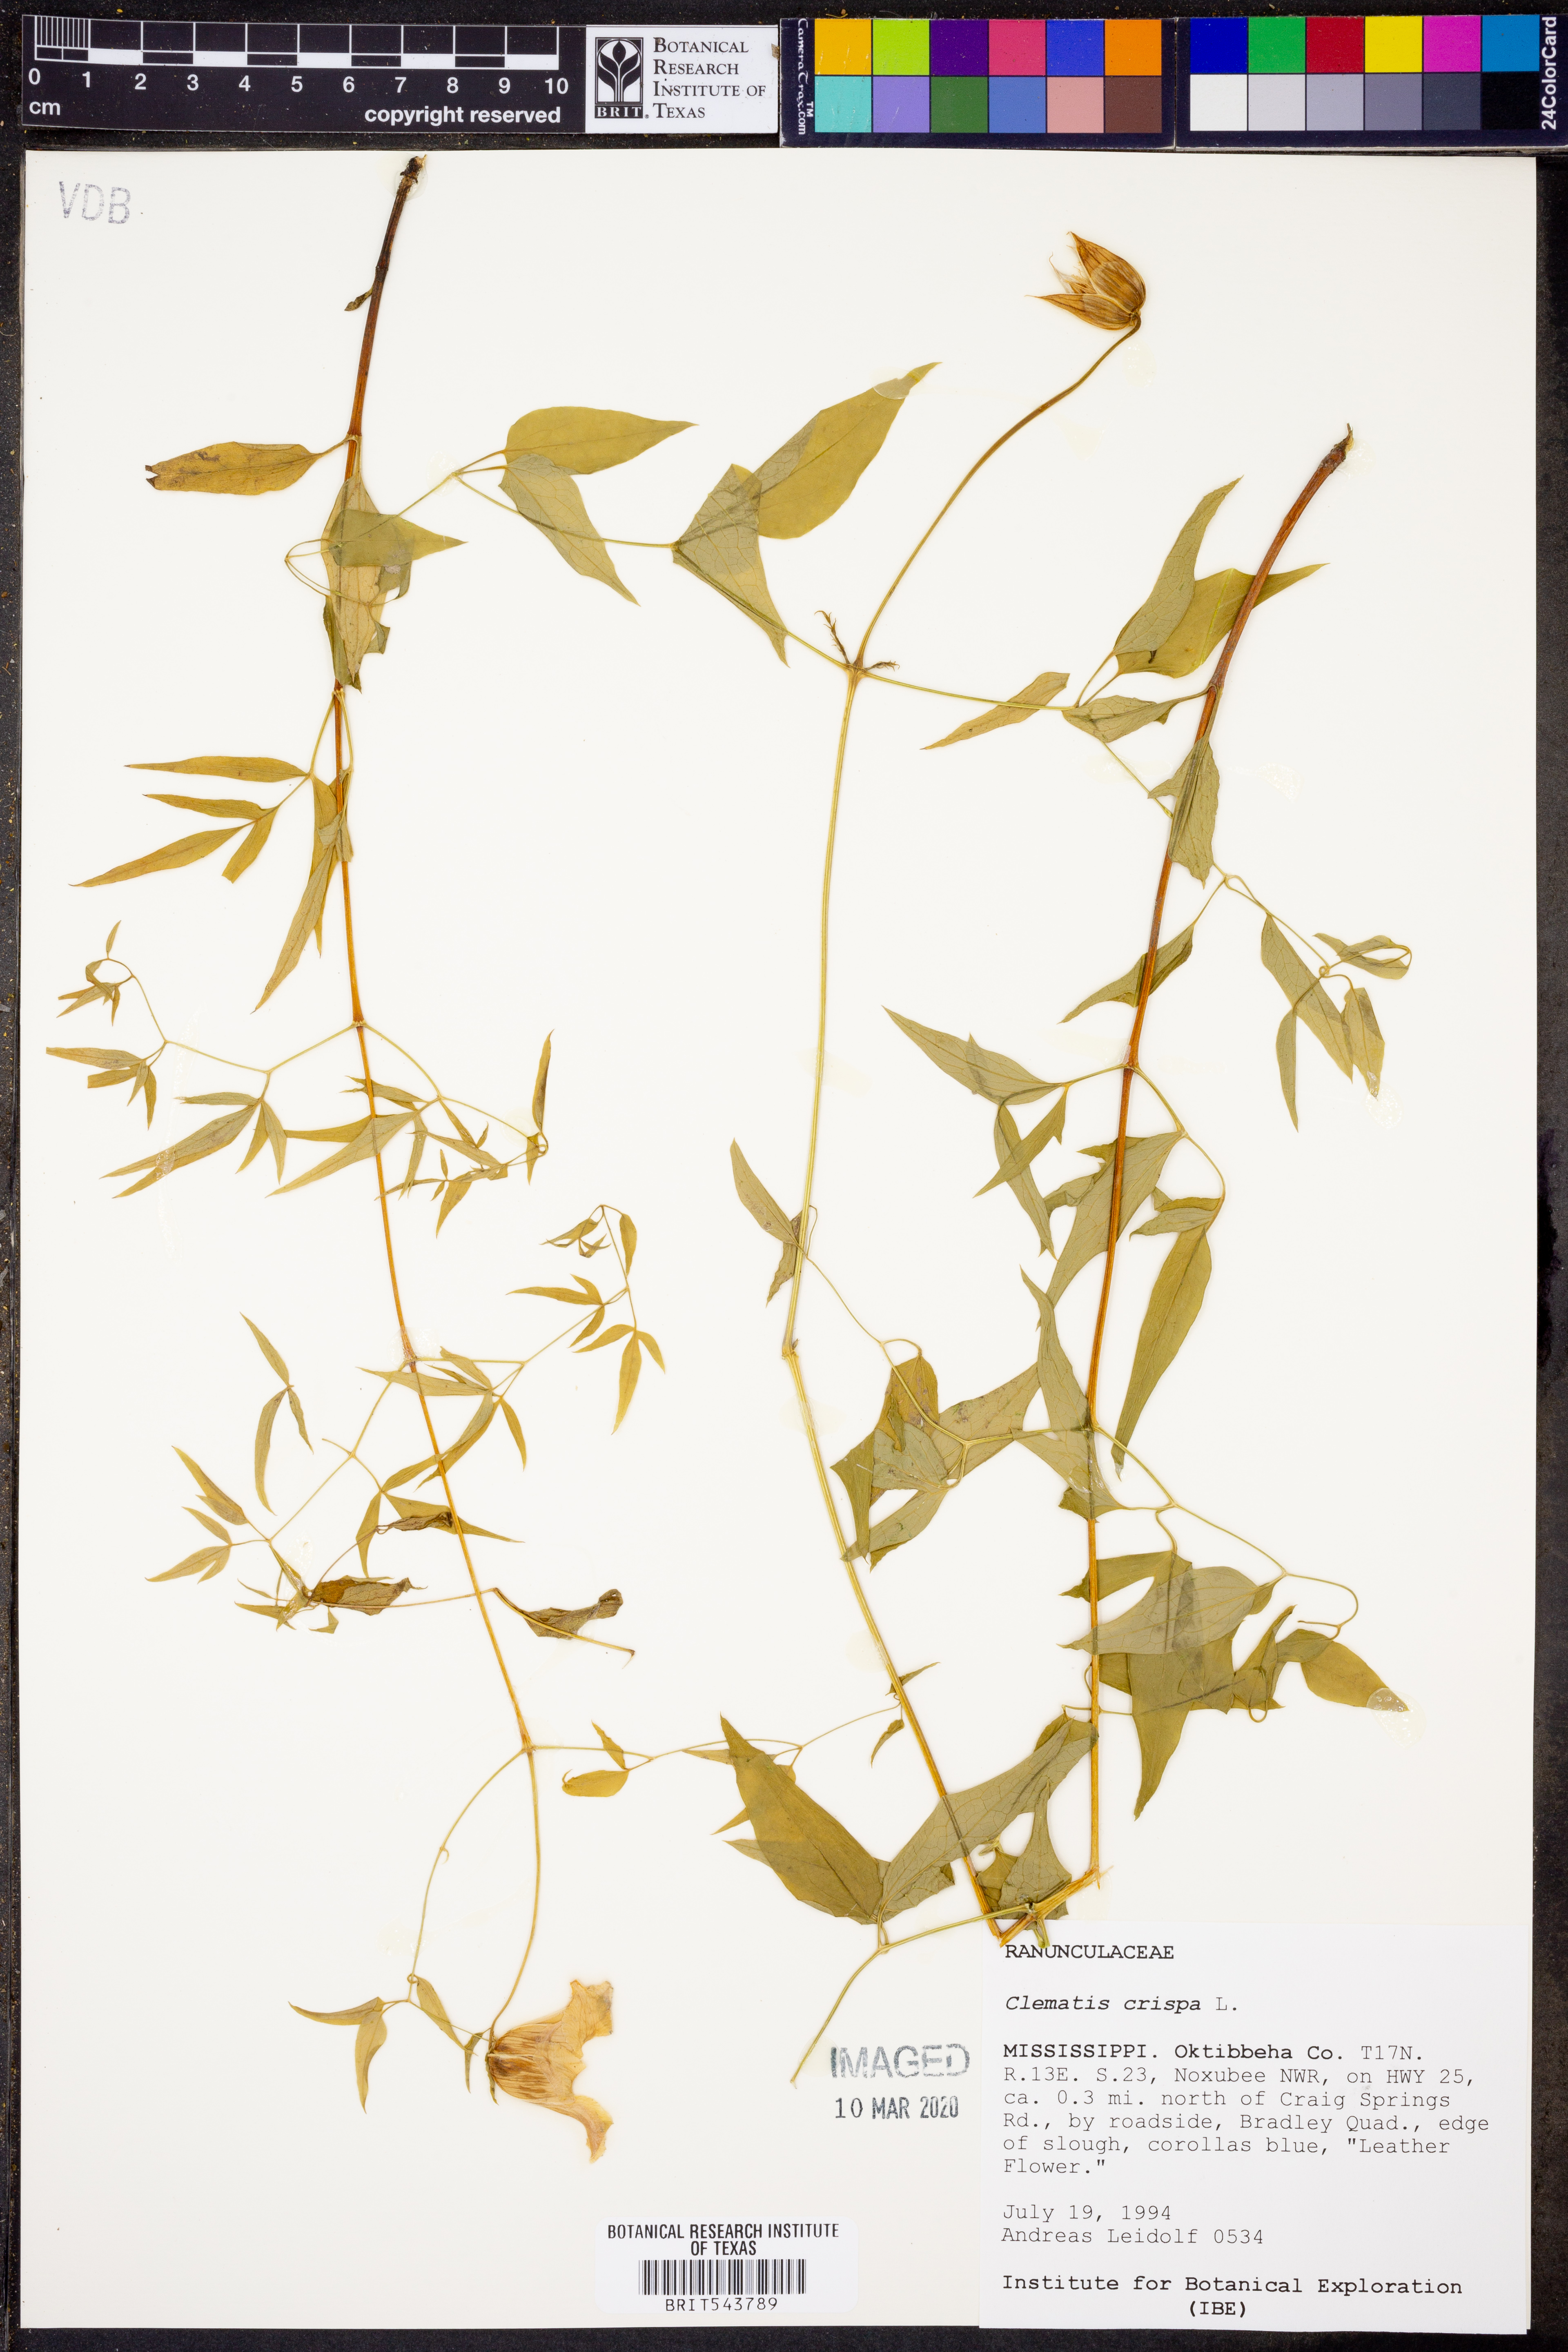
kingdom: Plantae
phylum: Tracheophyta
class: Magnoliopsida
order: Ranunculales
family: Ranunculaceae
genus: Clematis
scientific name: Clematis crispa
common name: Curly clematis
